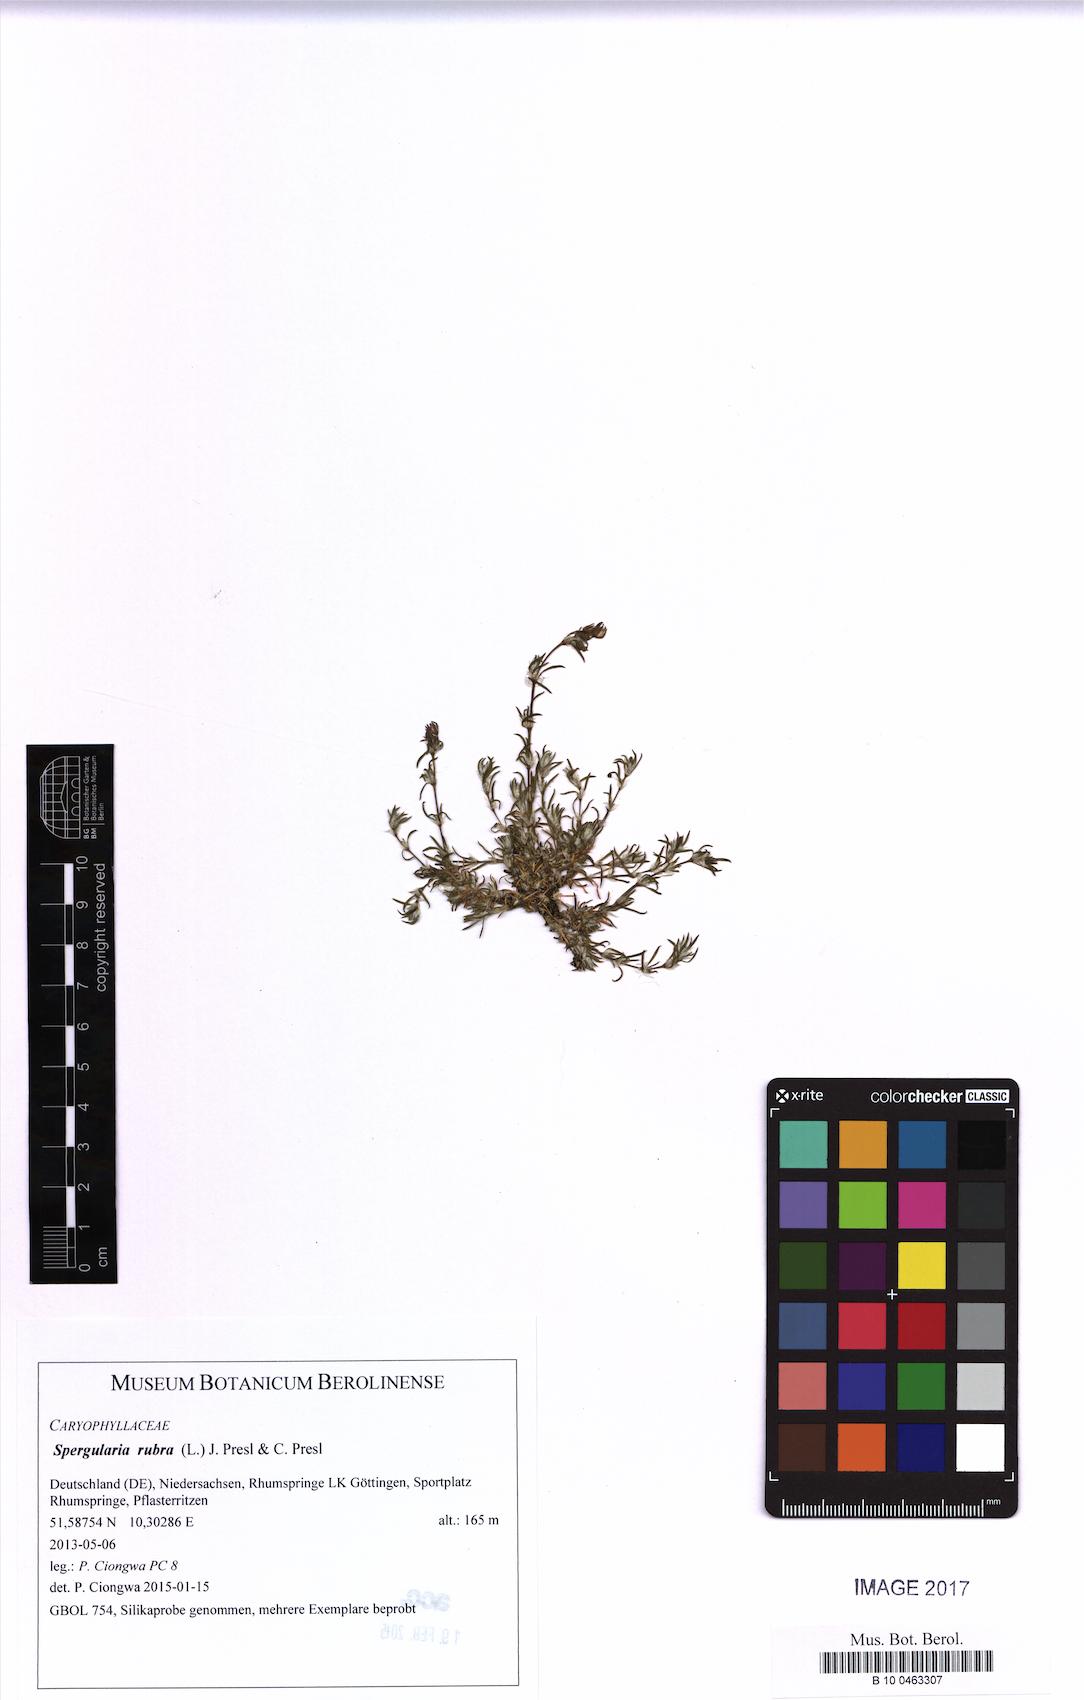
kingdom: Plantae
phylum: Tracheophyta
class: Magnoliopsida
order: Caryophyllales
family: Caryophyllaceae
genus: Spergularia
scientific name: Spergularia rubra
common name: Red sand-spurrey
